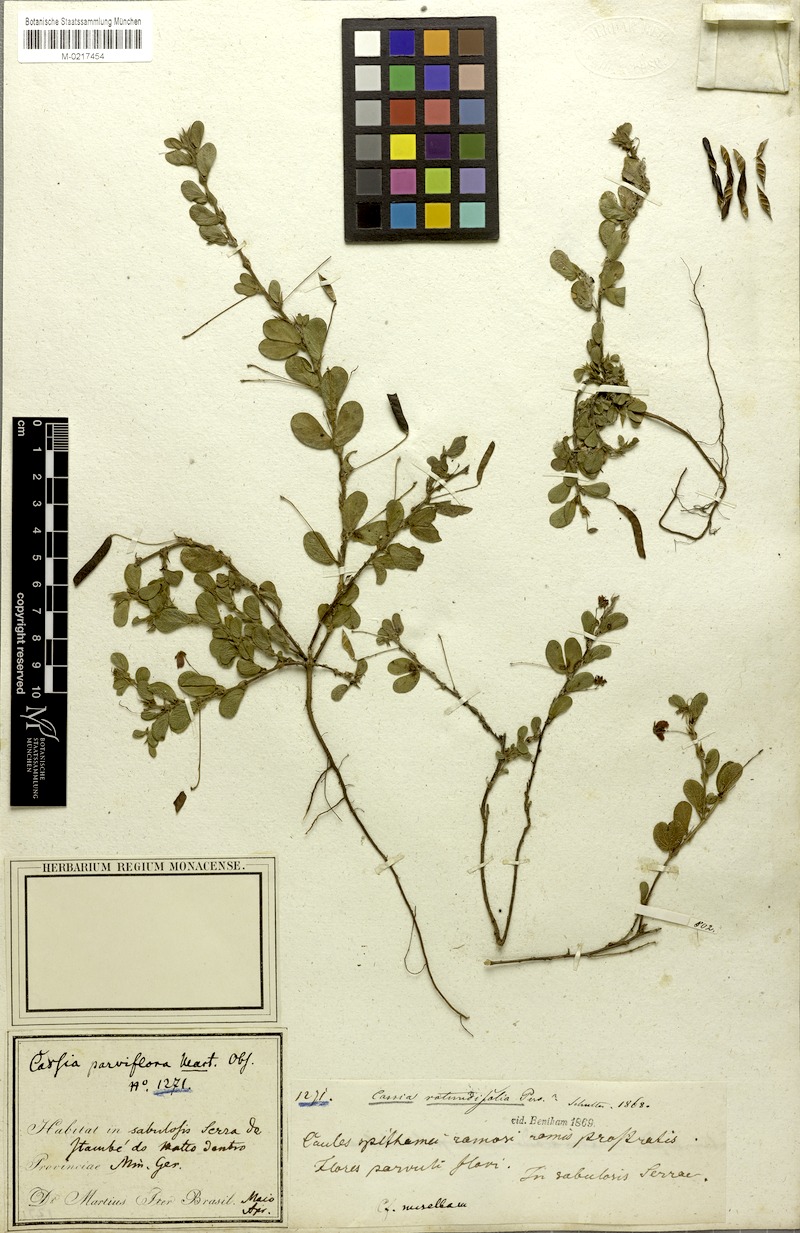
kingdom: Plantae
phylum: Tracheophyta
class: Magnoliopsida
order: Fabales
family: Fabaceae
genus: Chamaecrista
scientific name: Chamaecrista rotundifolia
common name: Round-leaf cassia
